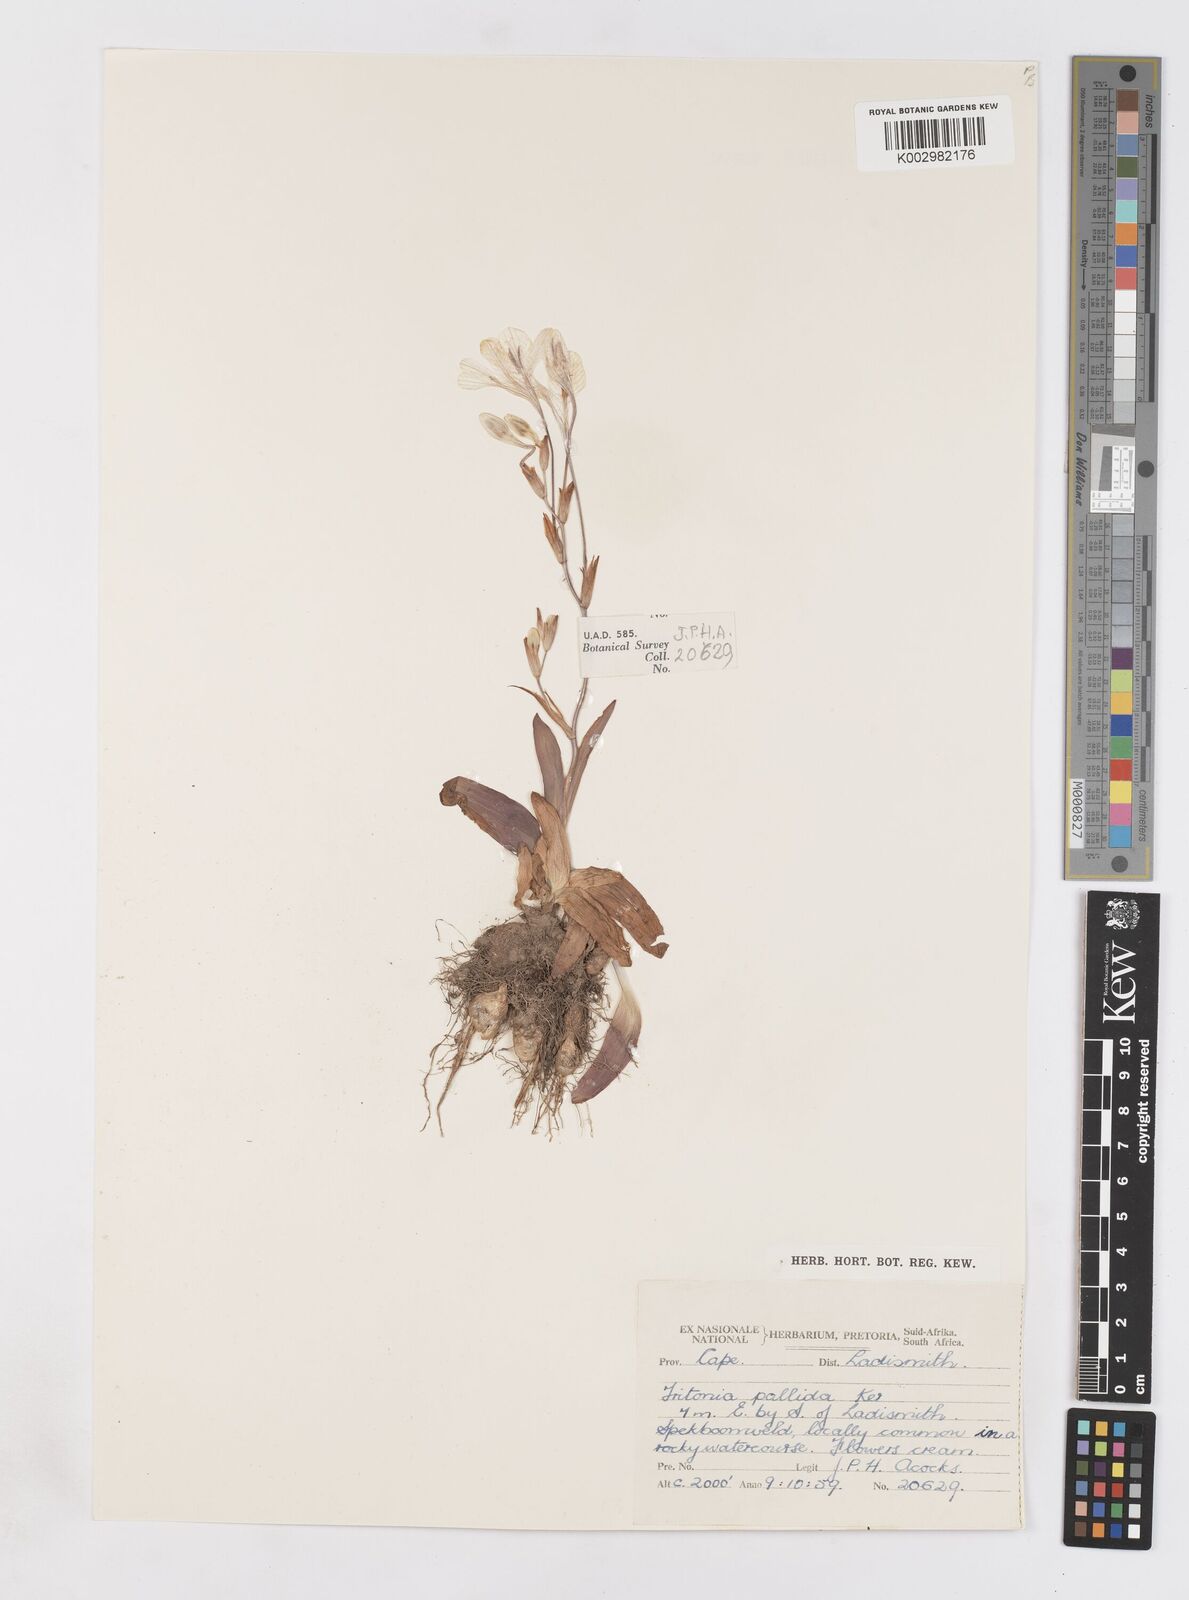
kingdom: Plantae
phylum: Tracheophyta
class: Liliopsida
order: Asparagales
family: Iridaceae
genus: Tritonia
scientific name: Tritonia pallida
